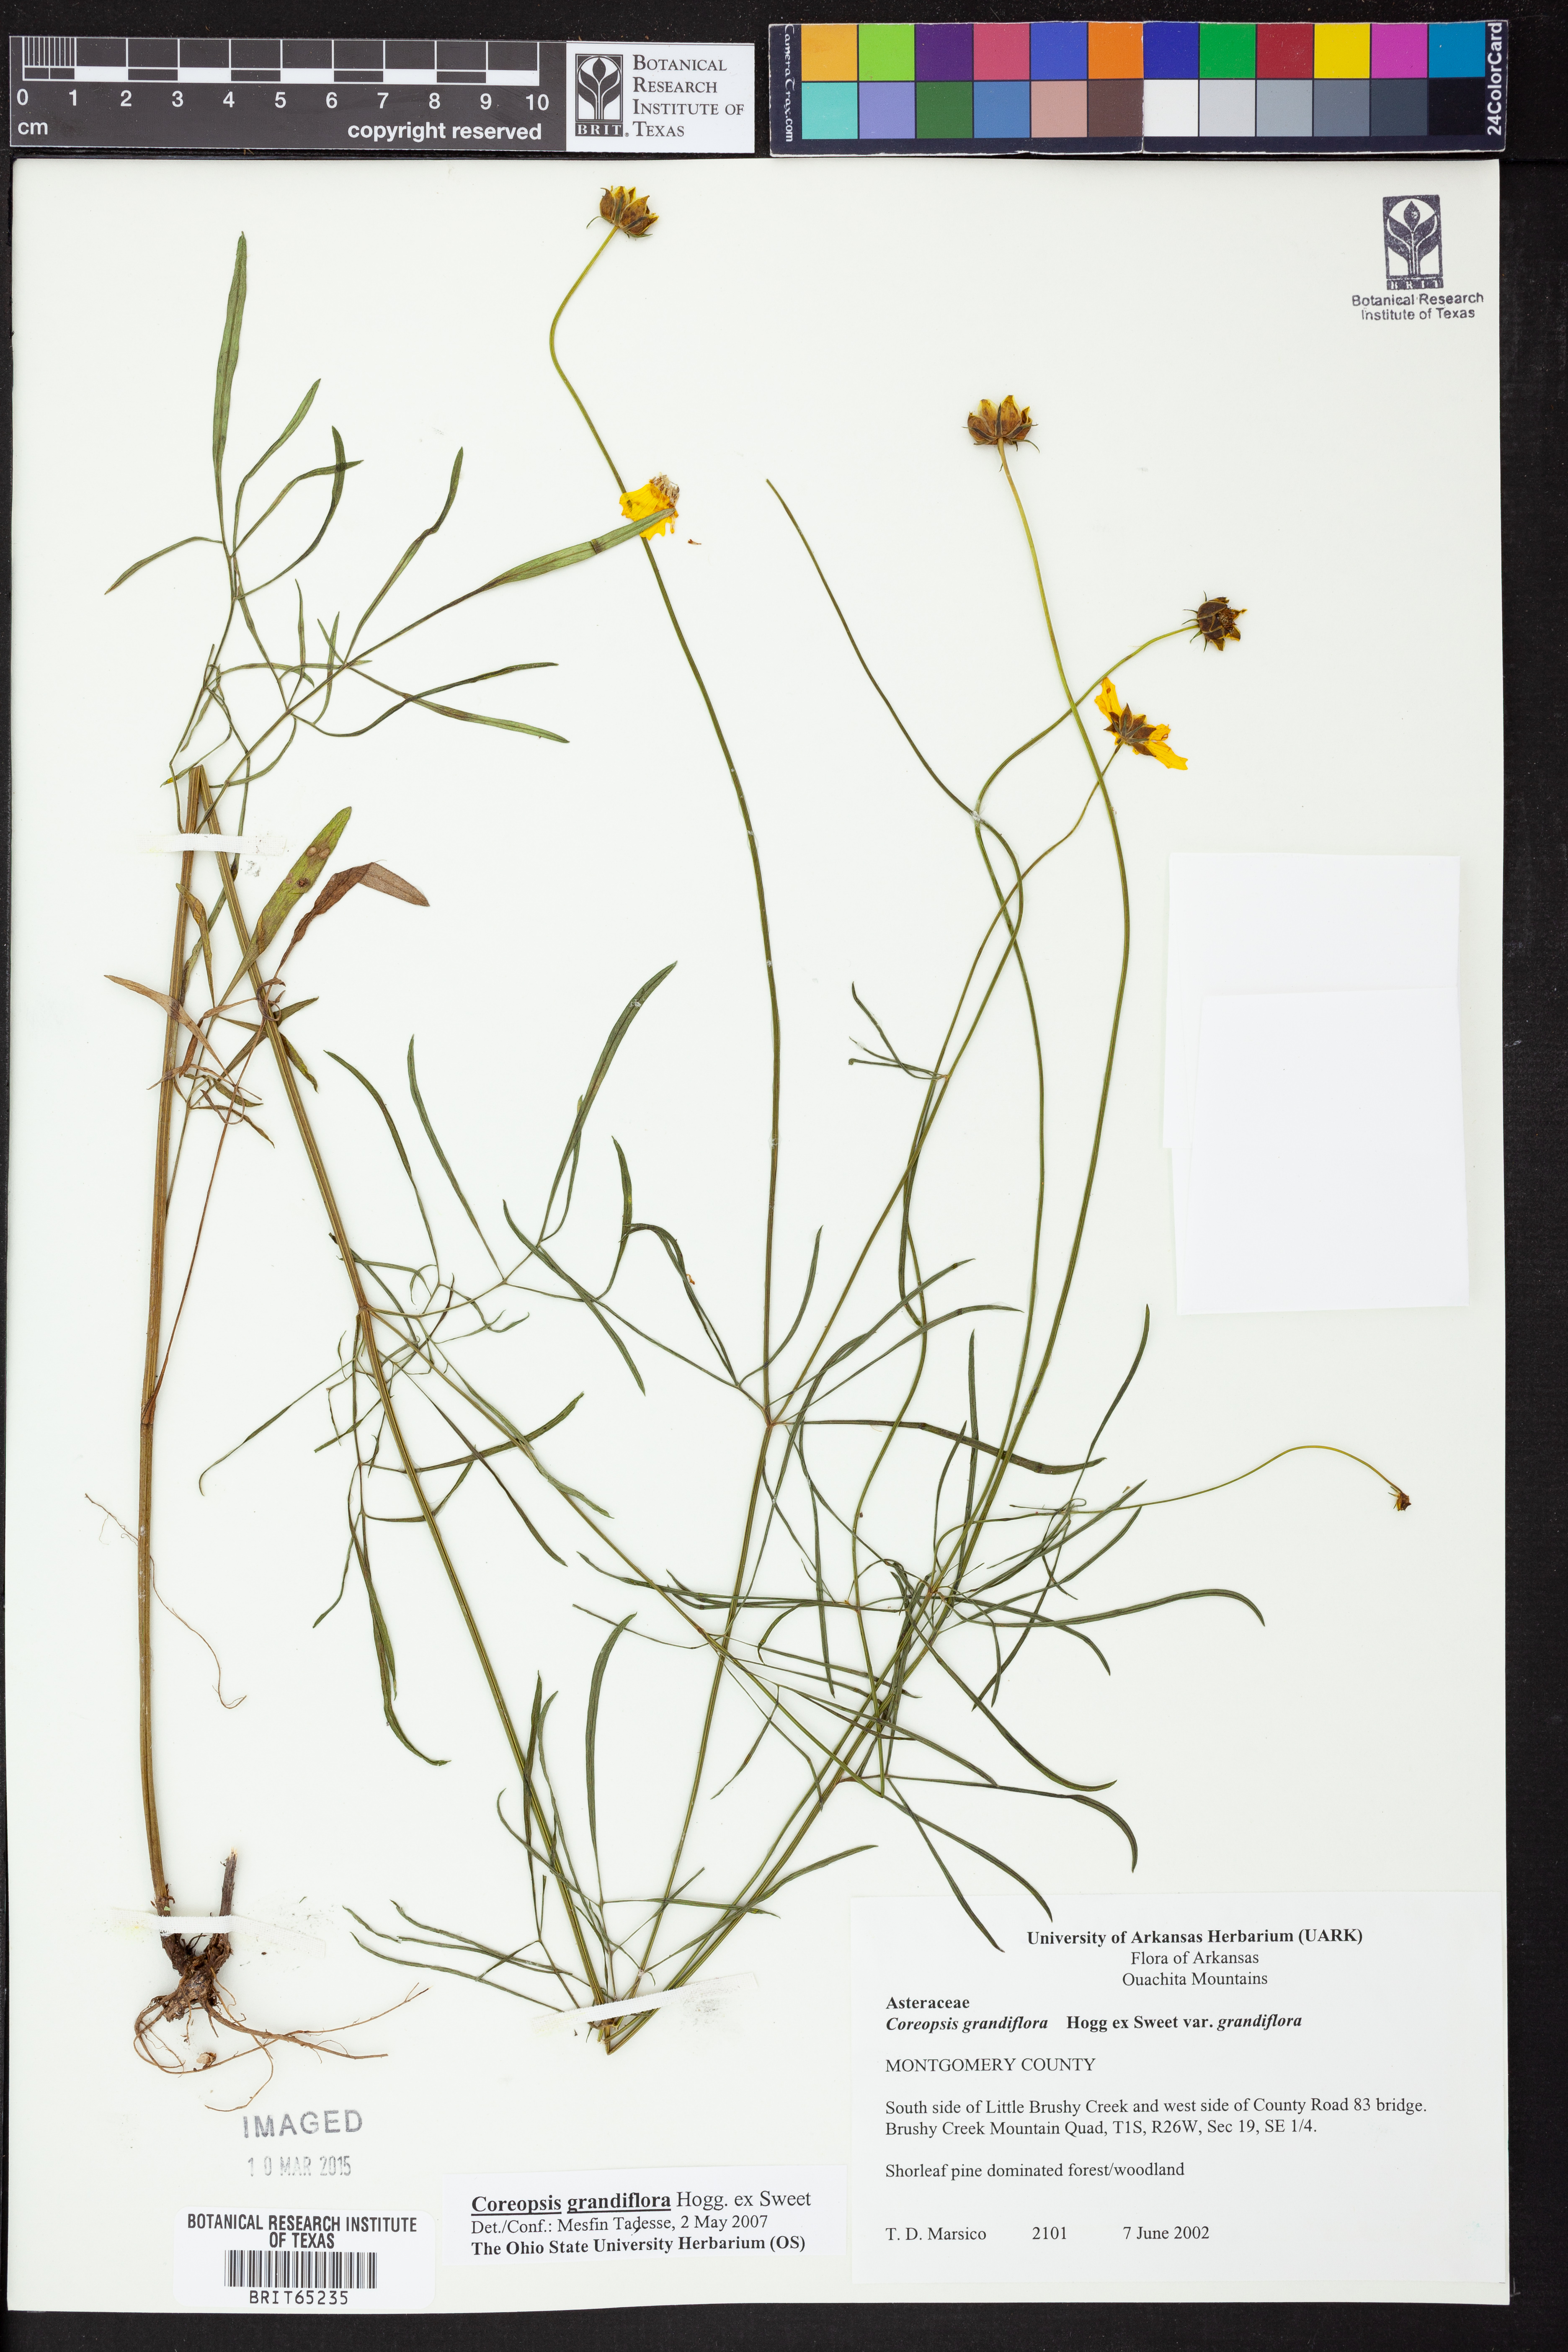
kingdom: Plantae
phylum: Tracheophyta
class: Magnoliopsida
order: Asterales
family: Asteraceae
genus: Coreopsis
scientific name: Coreopsis grandiflora
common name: Large-flowered tickseed
